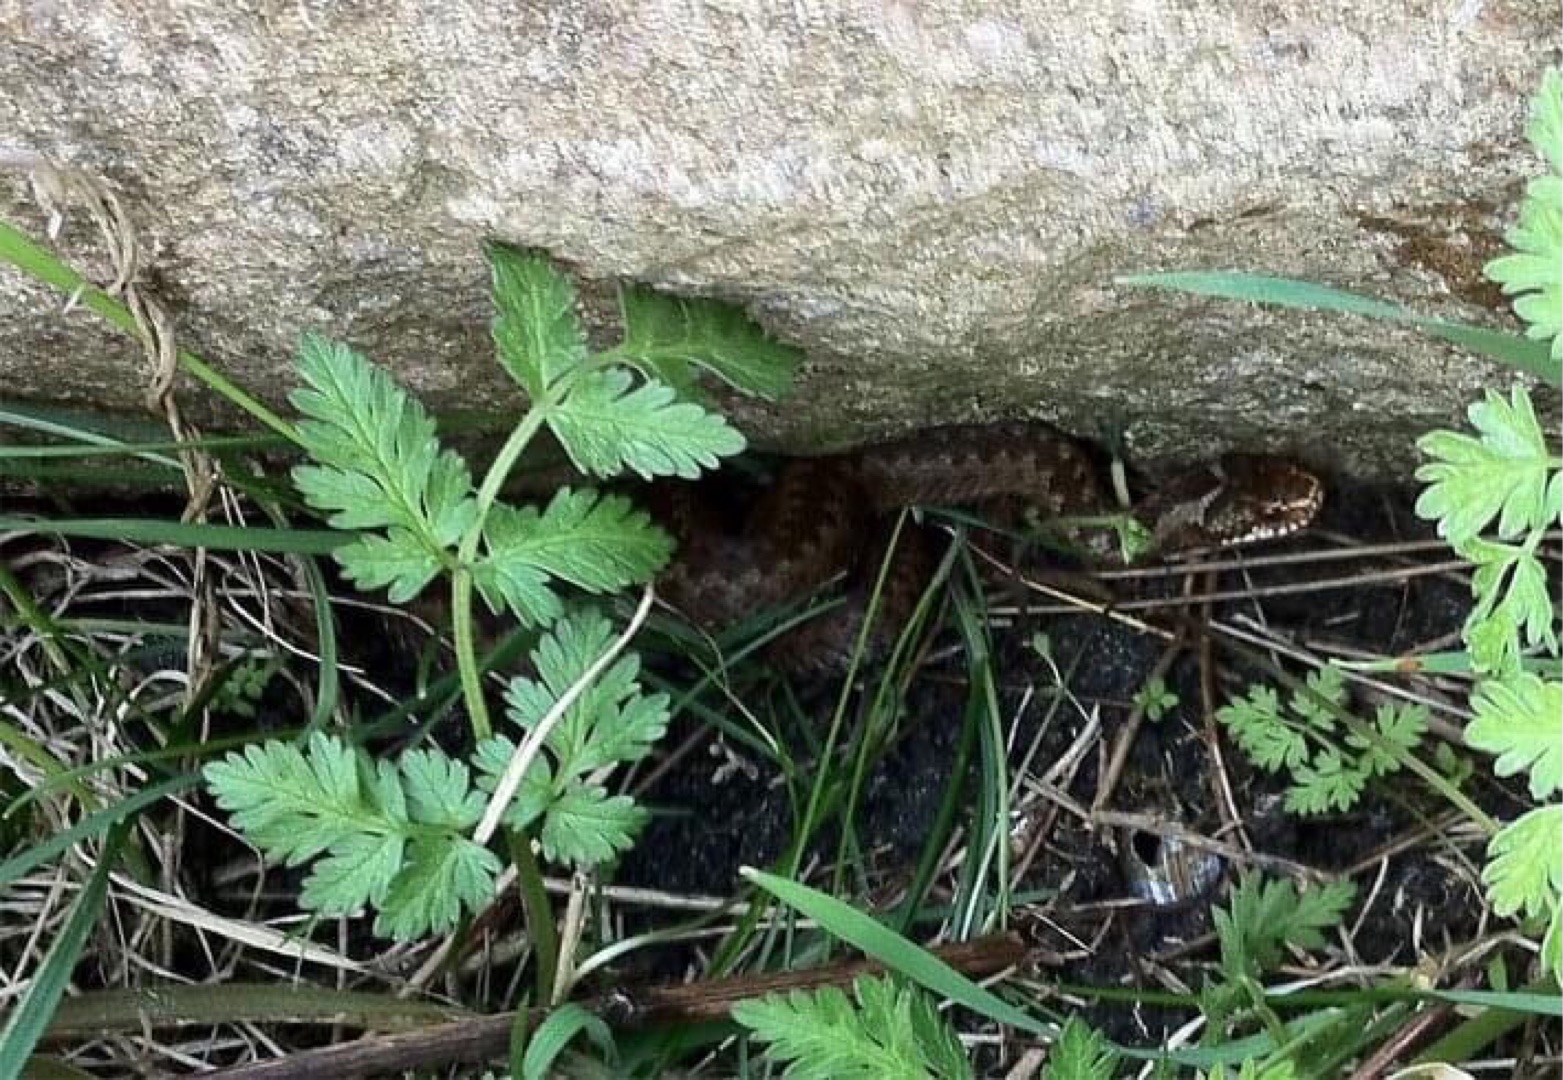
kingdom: Animalia
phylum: Chordata
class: Squamata
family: Viperidae
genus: Vipera
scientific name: Vipera berus
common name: Hugorm
